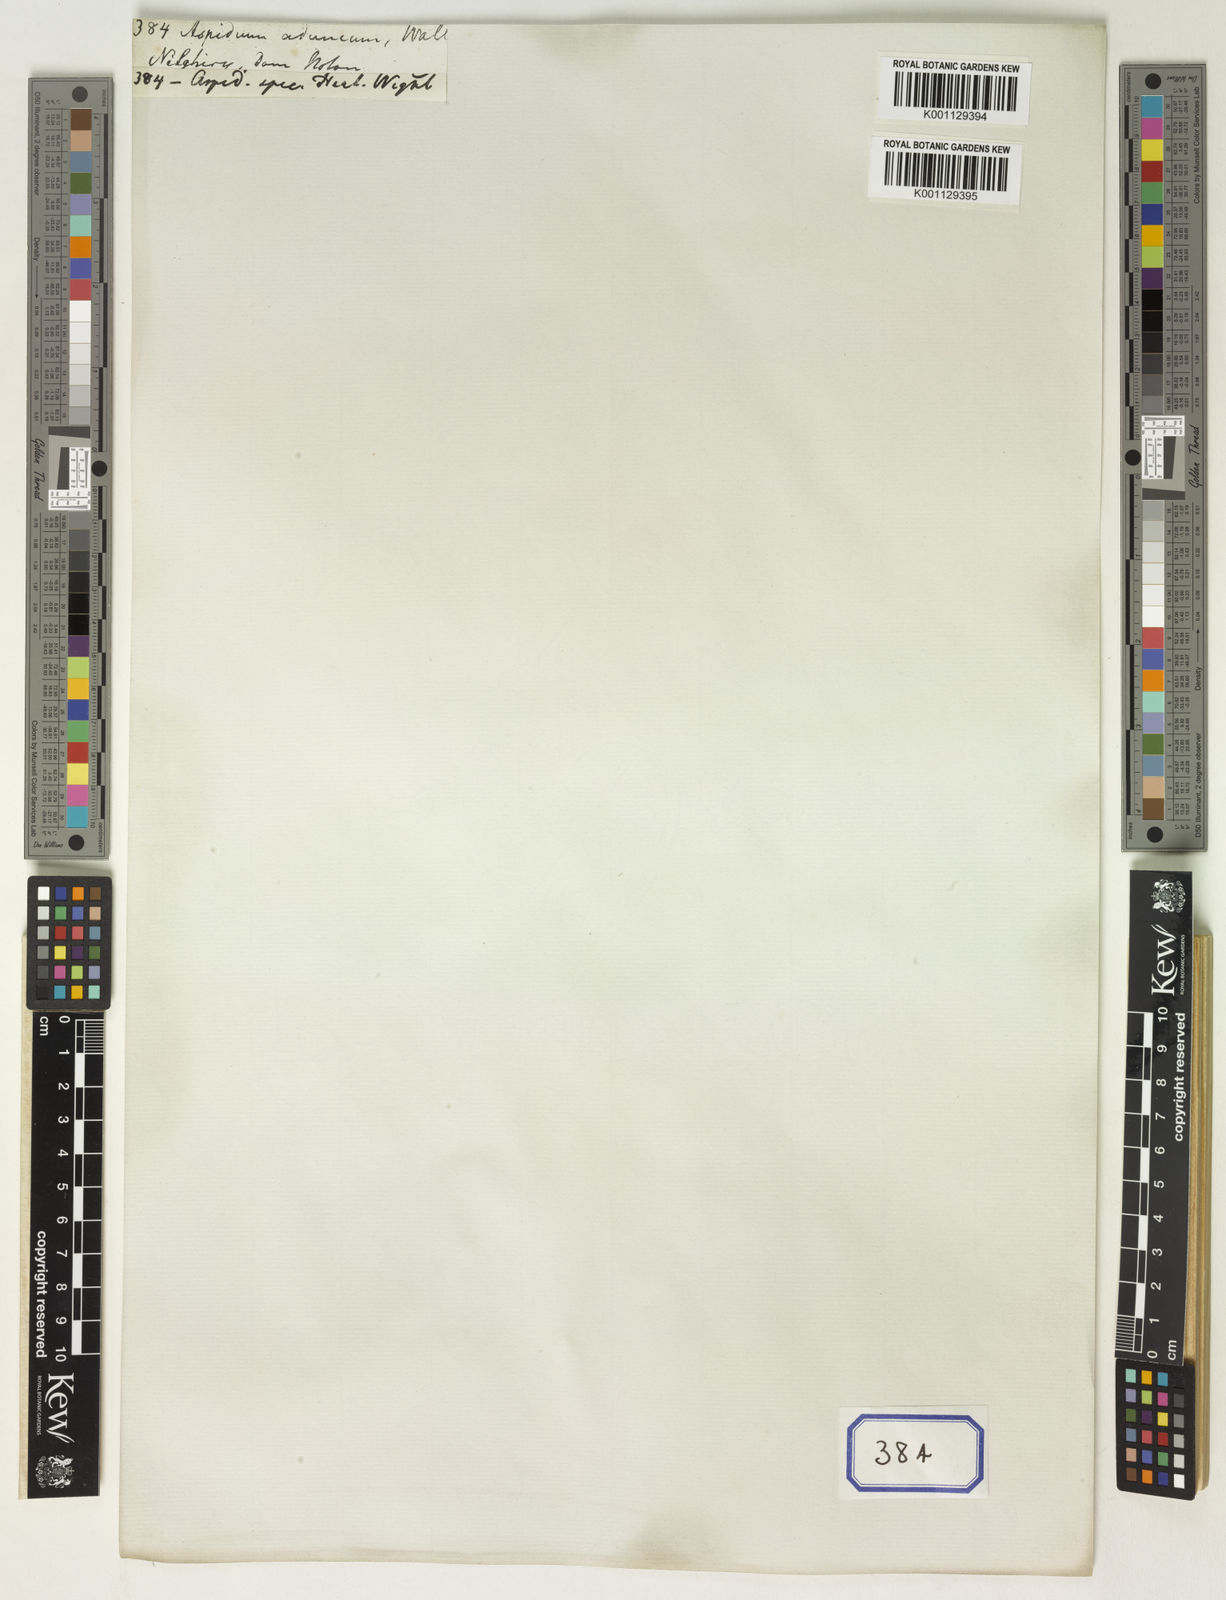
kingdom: Plantae
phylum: Tracheophyta
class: Polypodiopsida
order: Polypodiales
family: Dryopteridaceae
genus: Dryopteris
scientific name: Dryopteris hirtipes
